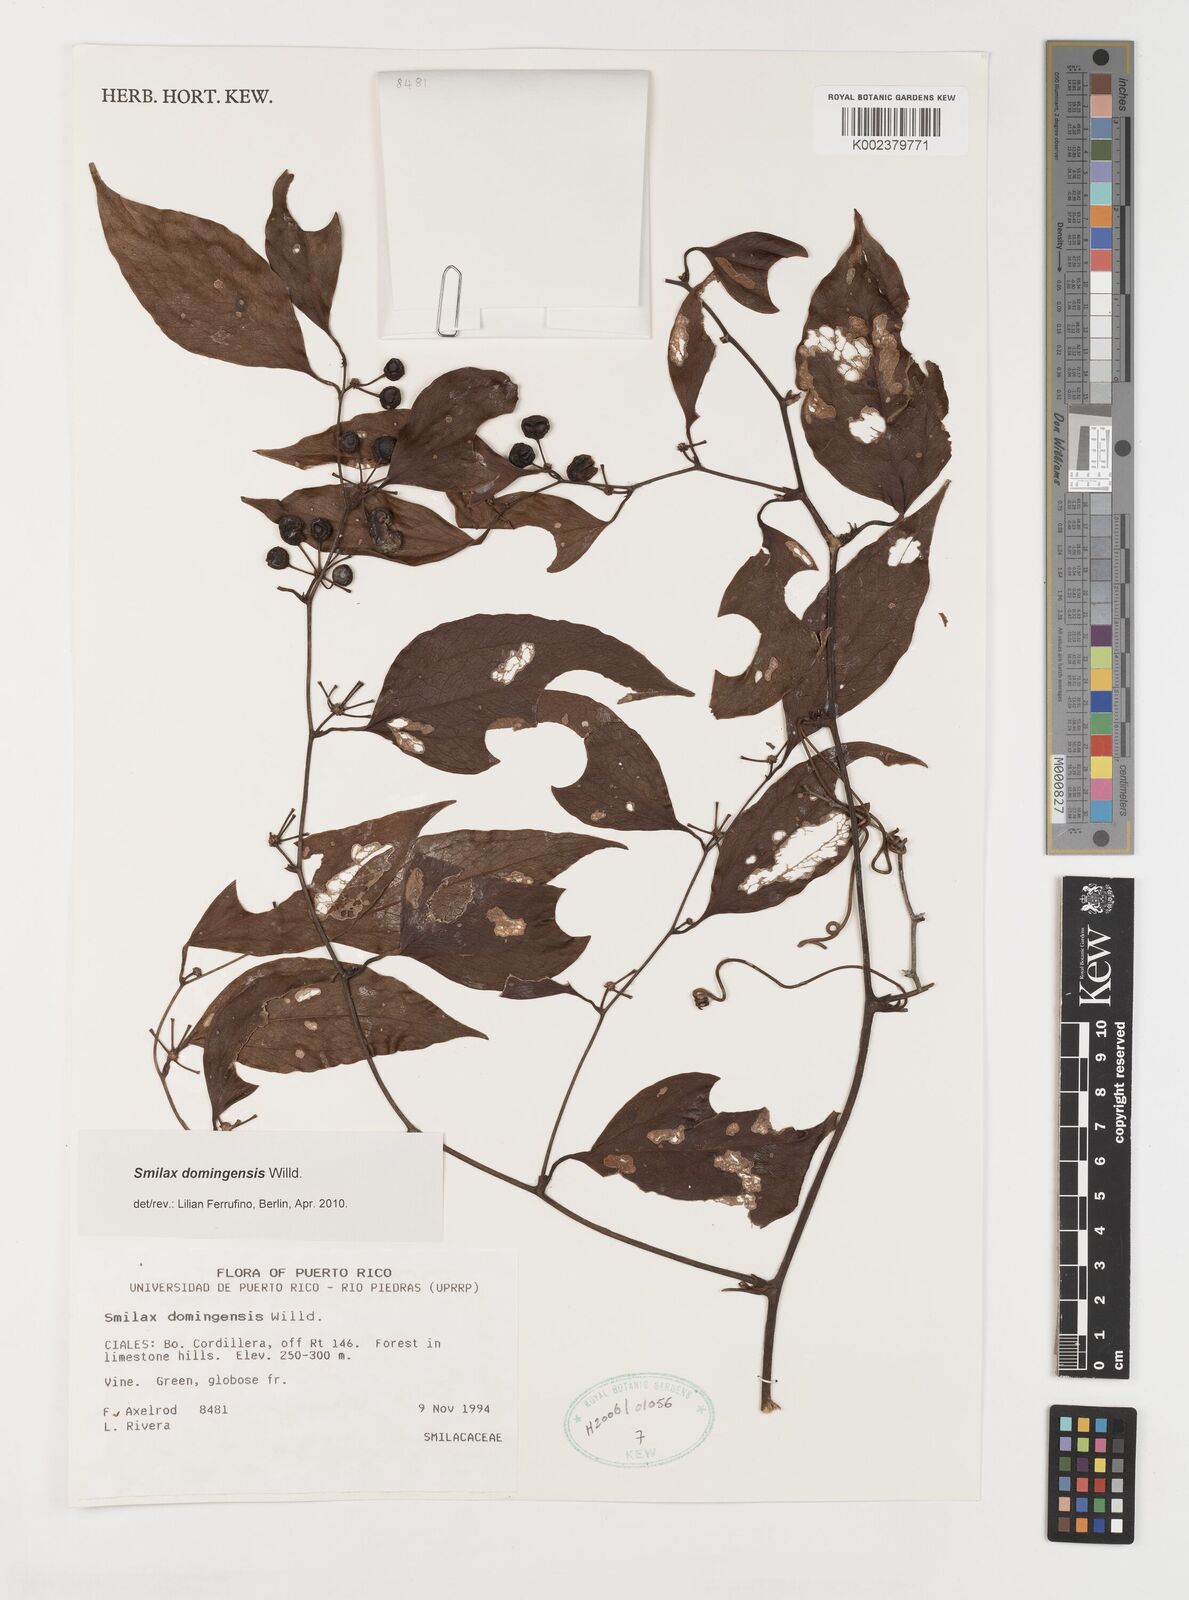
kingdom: Plantae
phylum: Tracheophyta
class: Liliopsida
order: Liliales
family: Smilacaceae
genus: Smilax
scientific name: Smilax domingensis
